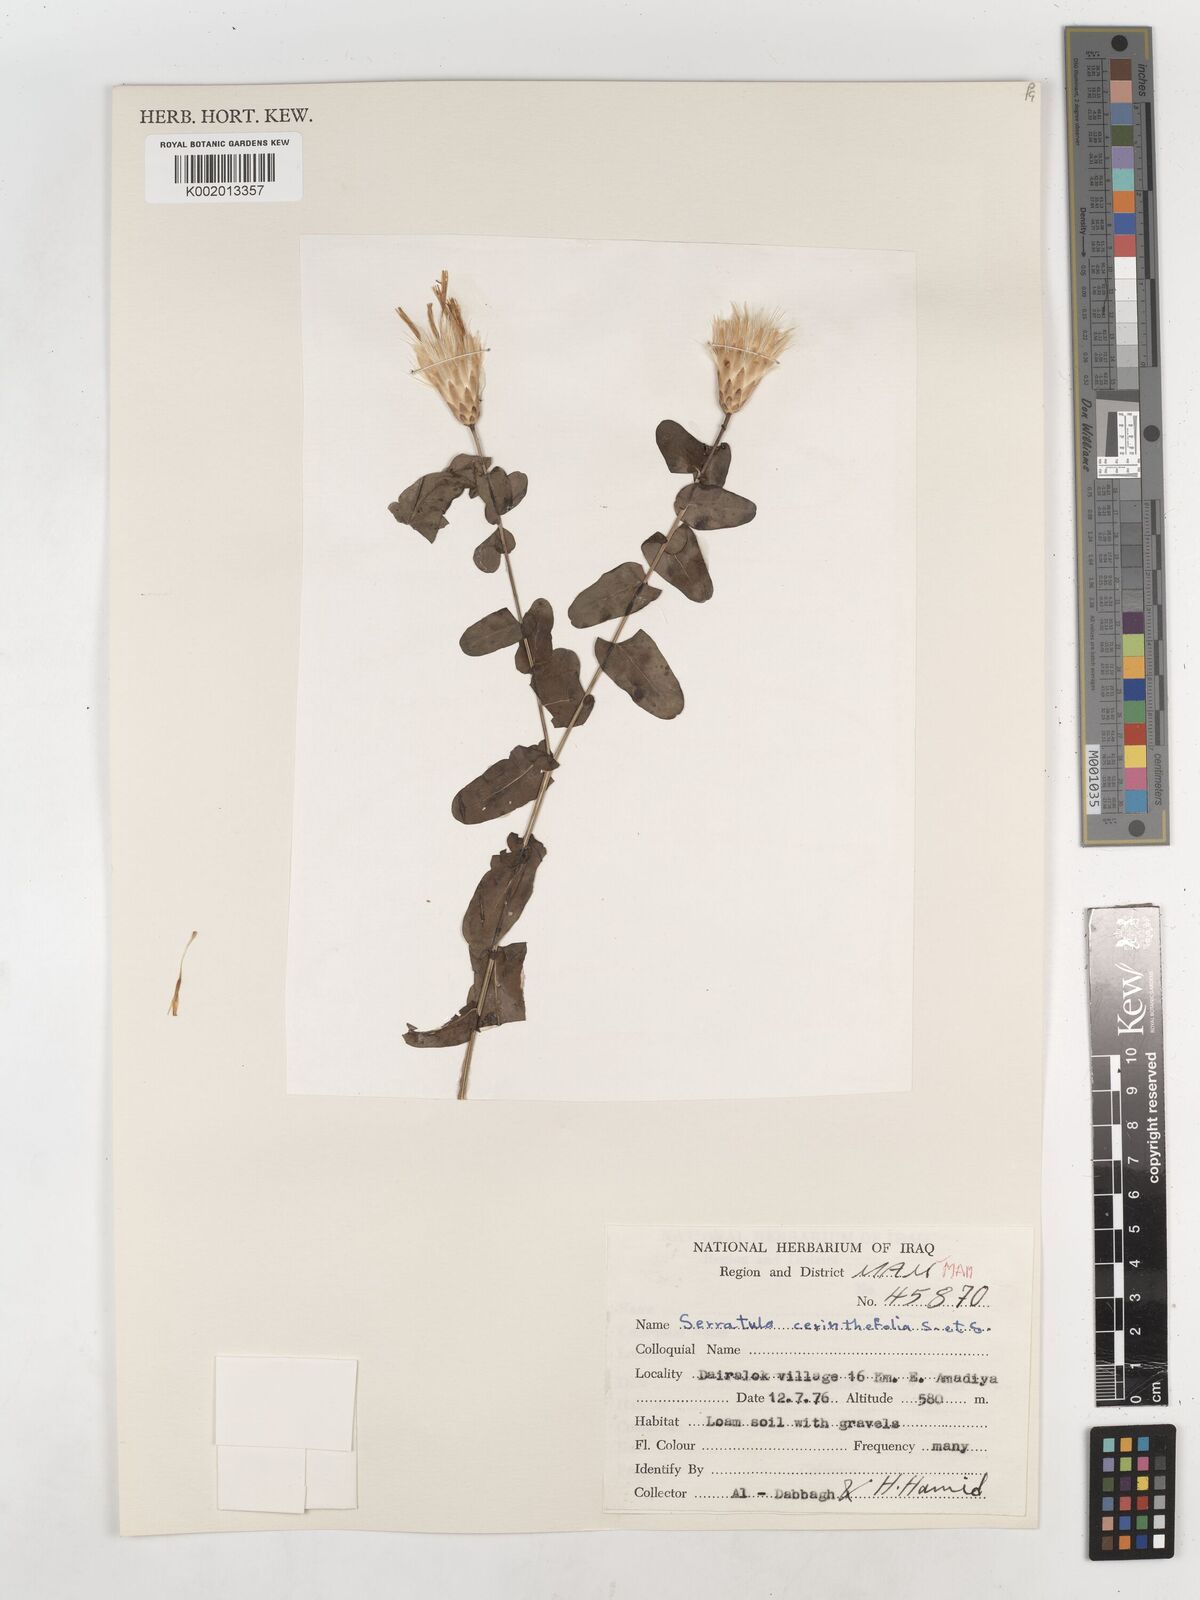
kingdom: Plantae
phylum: Tracheophyta
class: Magnoliopsida
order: Asterales
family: Asteraceae
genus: Klasea
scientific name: Klasea cerinthifolia
